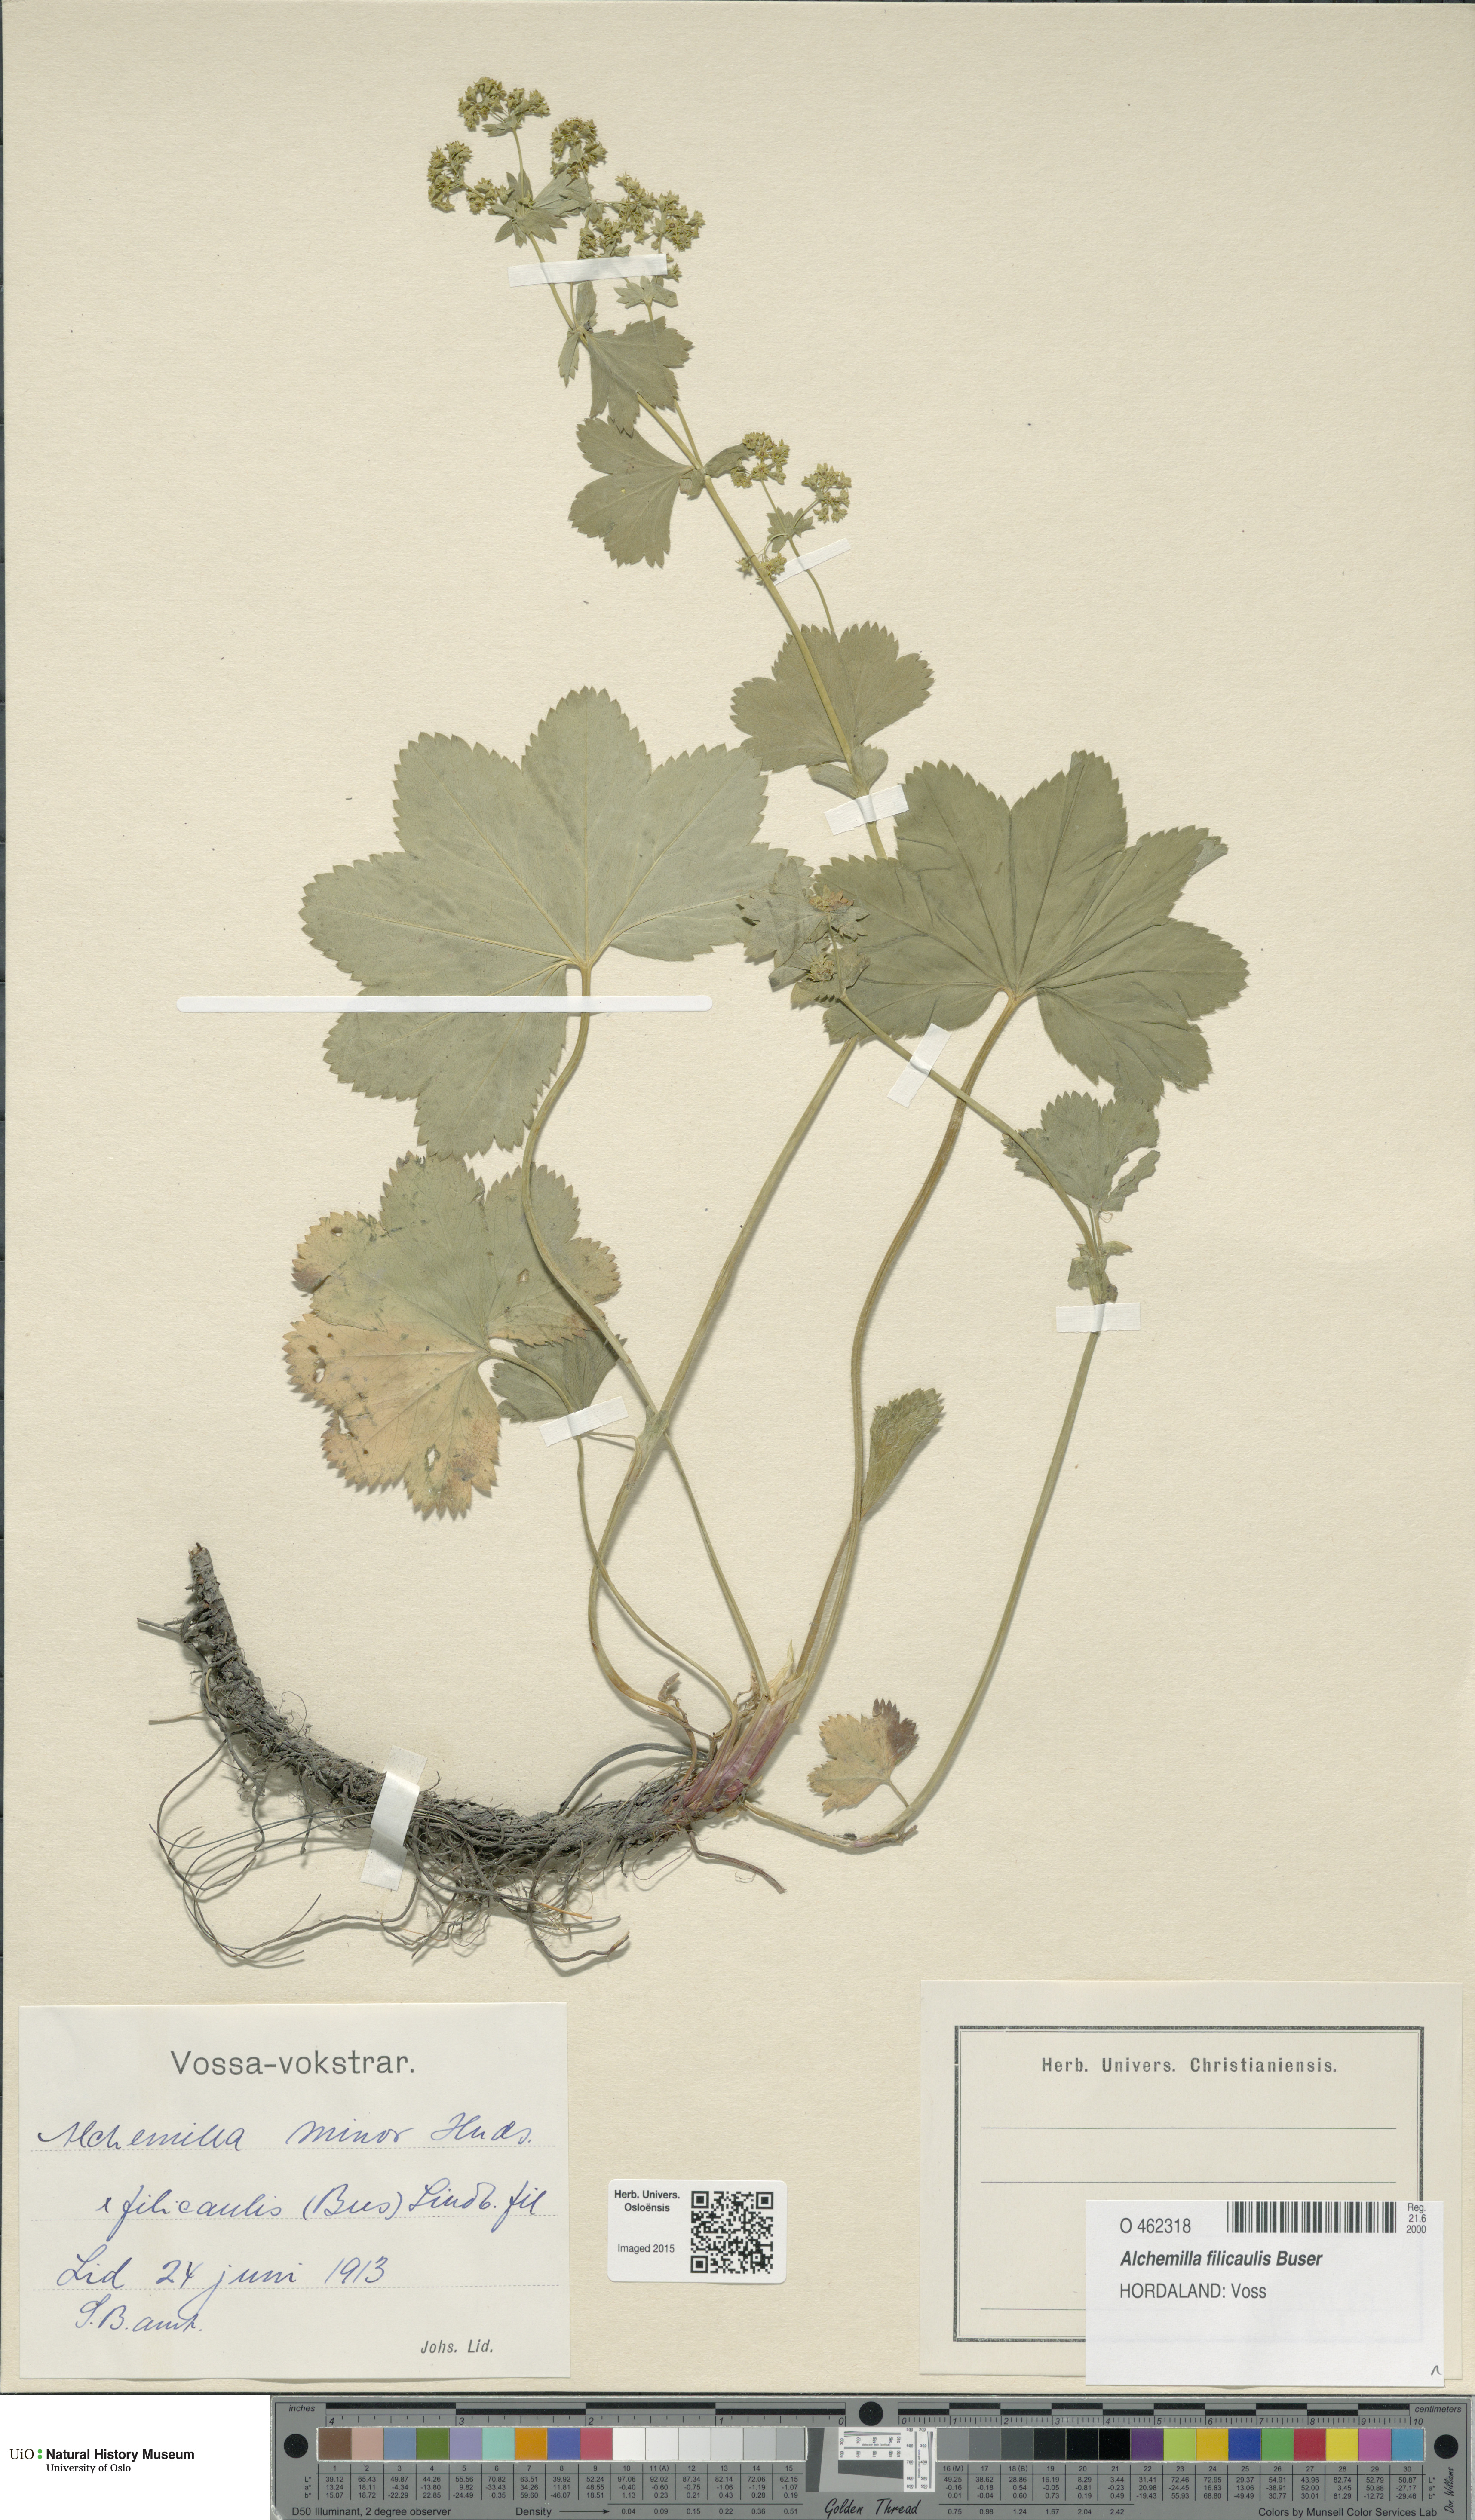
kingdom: Plantae
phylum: Tracheophyta
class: Magnoliopsida
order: Rosales
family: Rosaceae
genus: Alchemilla
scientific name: Alchemilla filicaulis
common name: Hairy lady's-mantle
